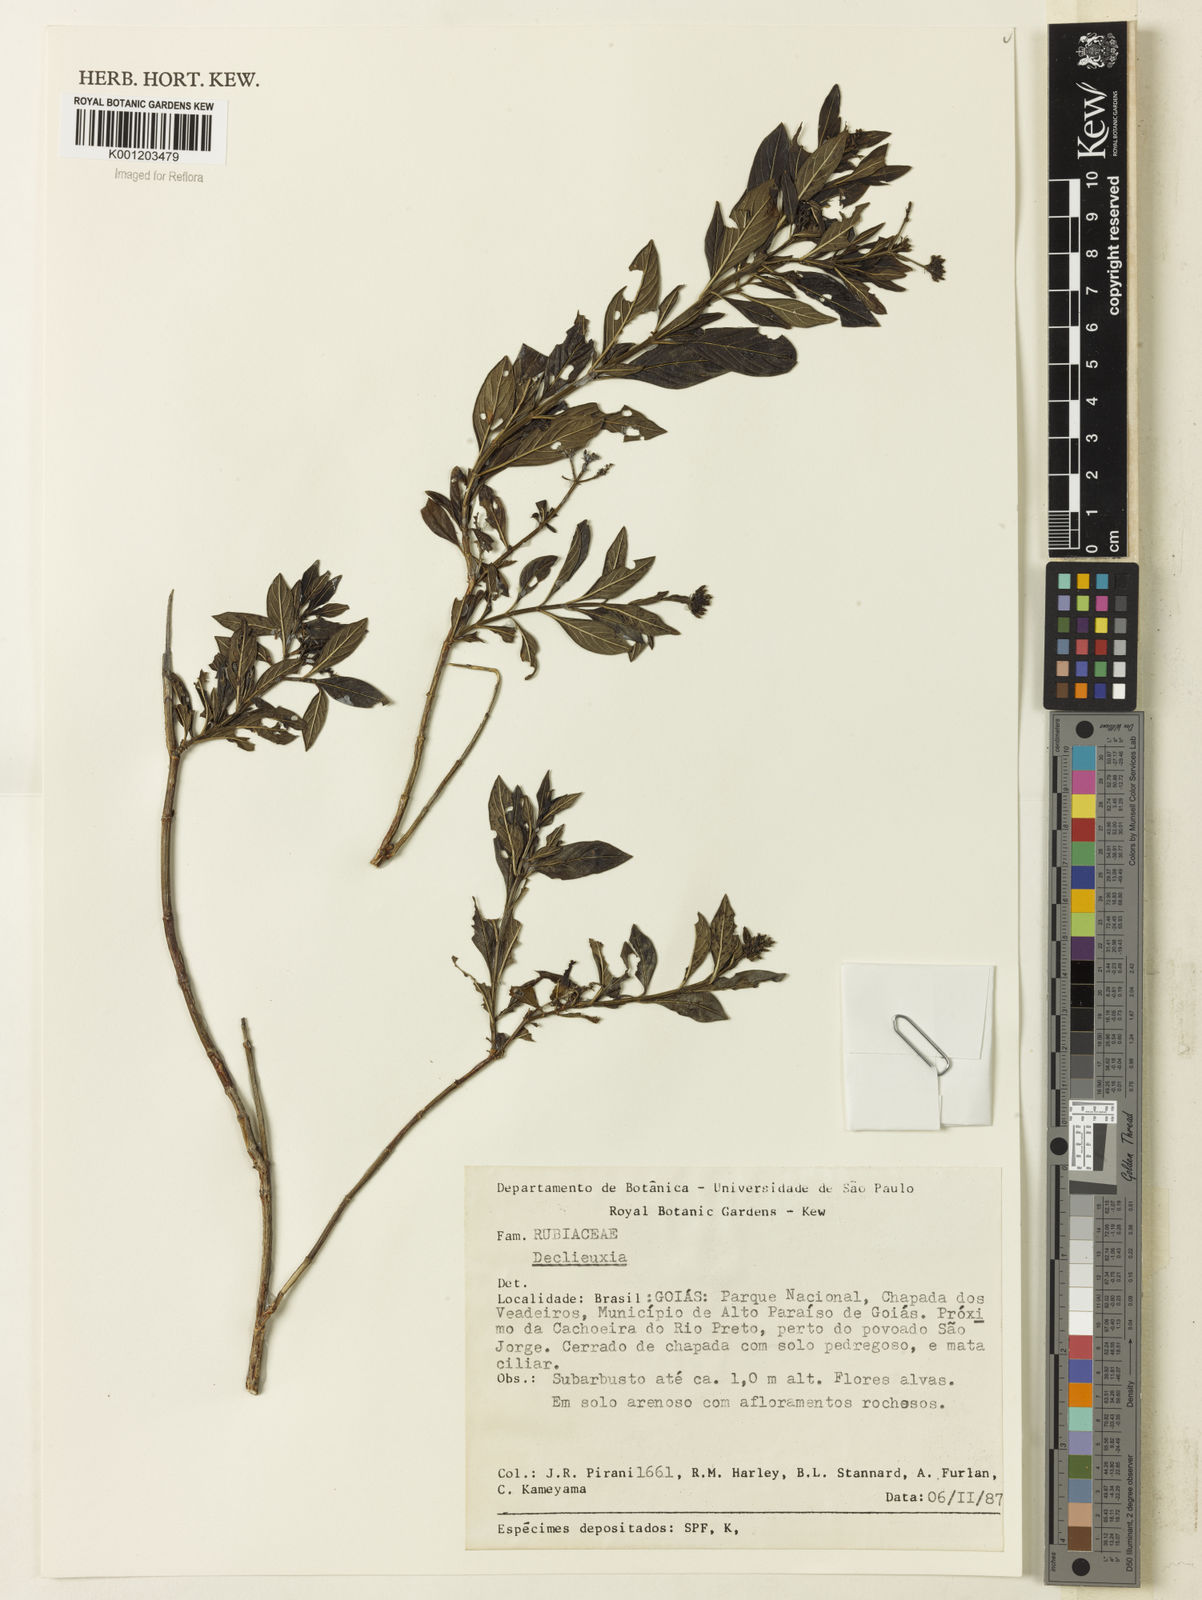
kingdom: Plantae
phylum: Tracheophyta
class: Magnoliopsida
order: Gentianales
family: Rubiaceae
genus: Declieuxia
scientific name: Declieuxia fruticosa
